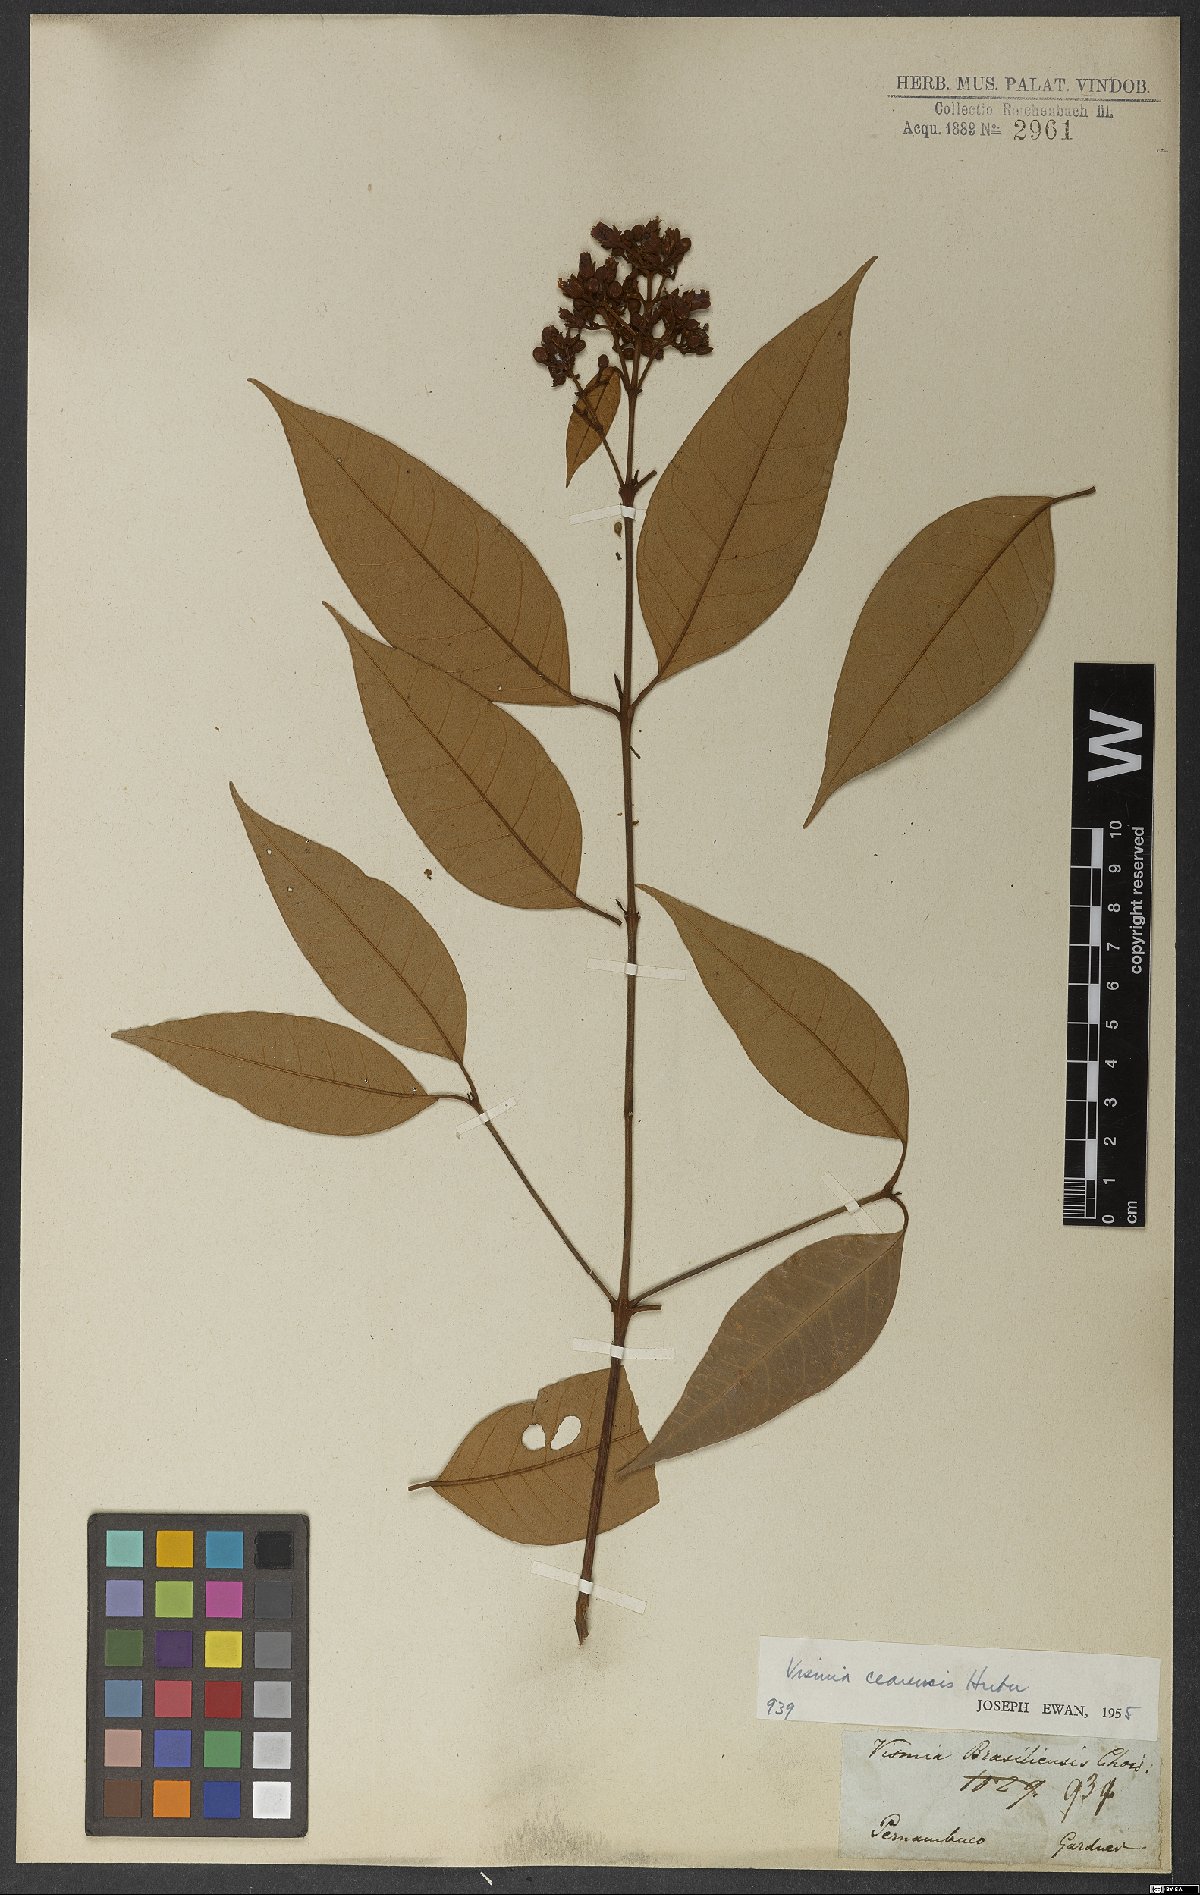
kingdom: Plantae
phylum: Tracheophyta
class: Magnoliopsida
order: Malpighiales
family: Hypericaceae
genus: Vismia
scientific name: Vismia guianensis
